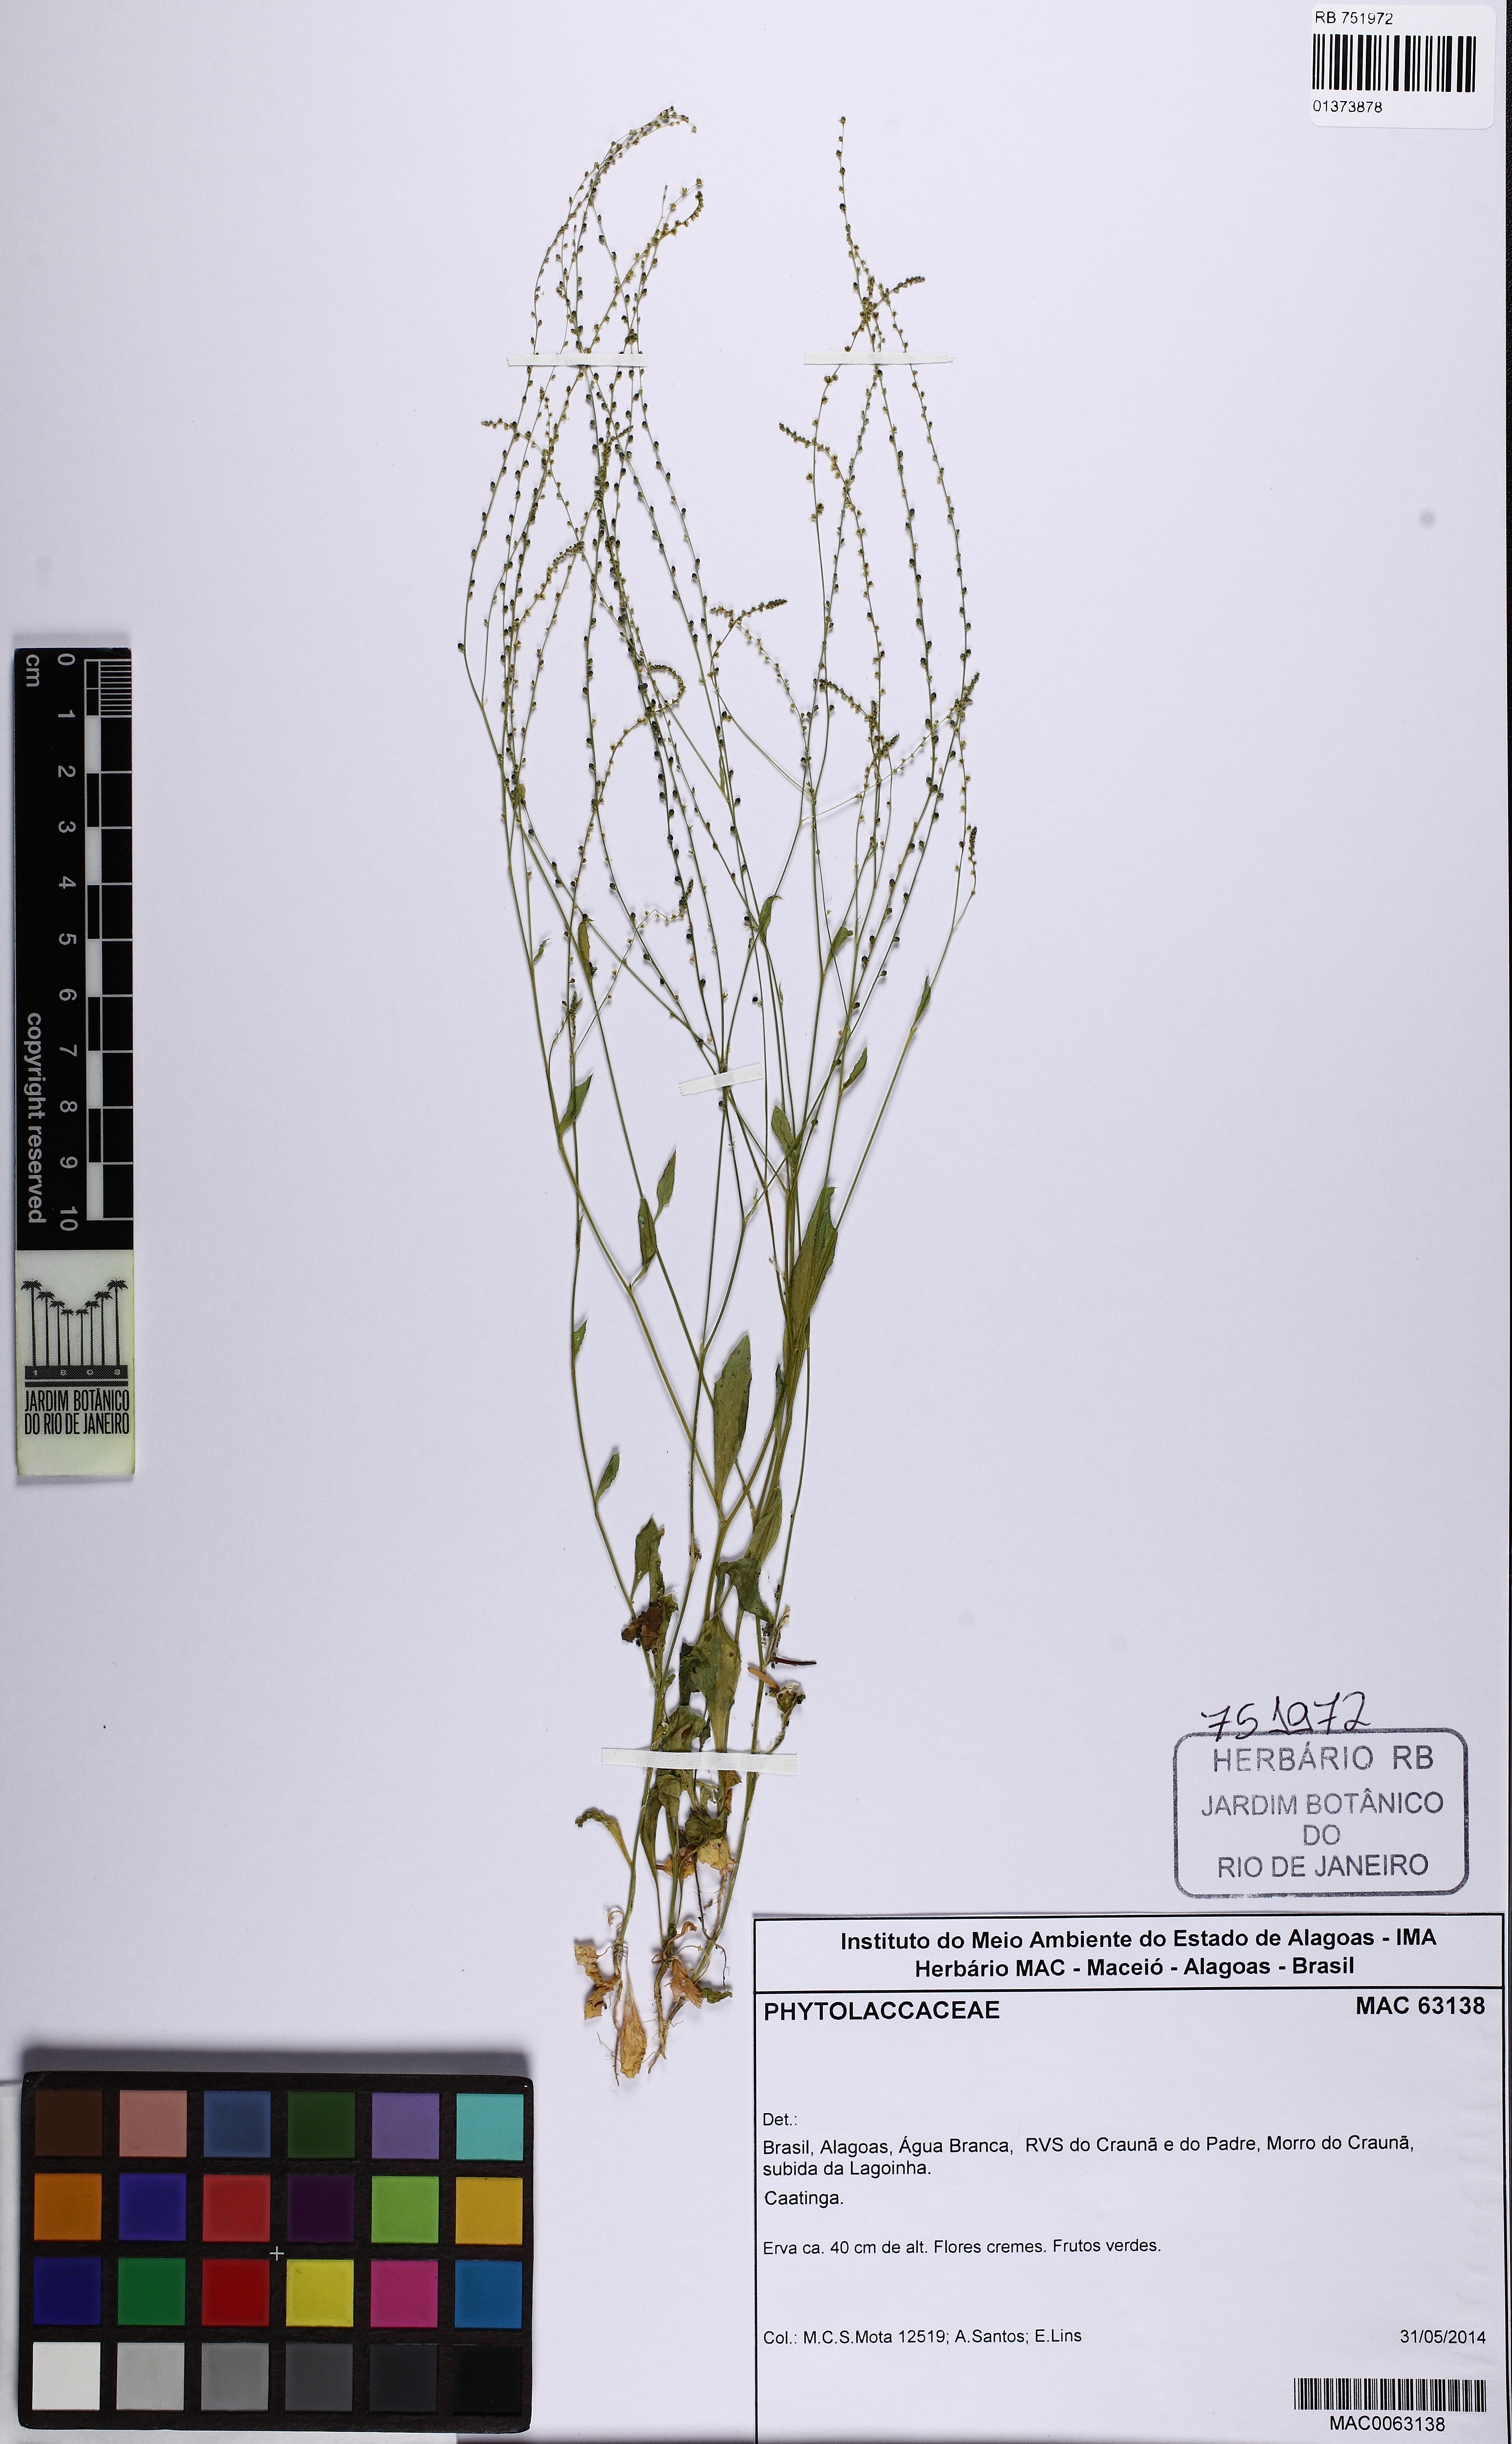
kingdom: Plantae
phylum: Tracheophyta
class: Magnoliopsida
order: Caryophyllales
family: Phytolaccaceae
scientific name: Phytolaccaceae
